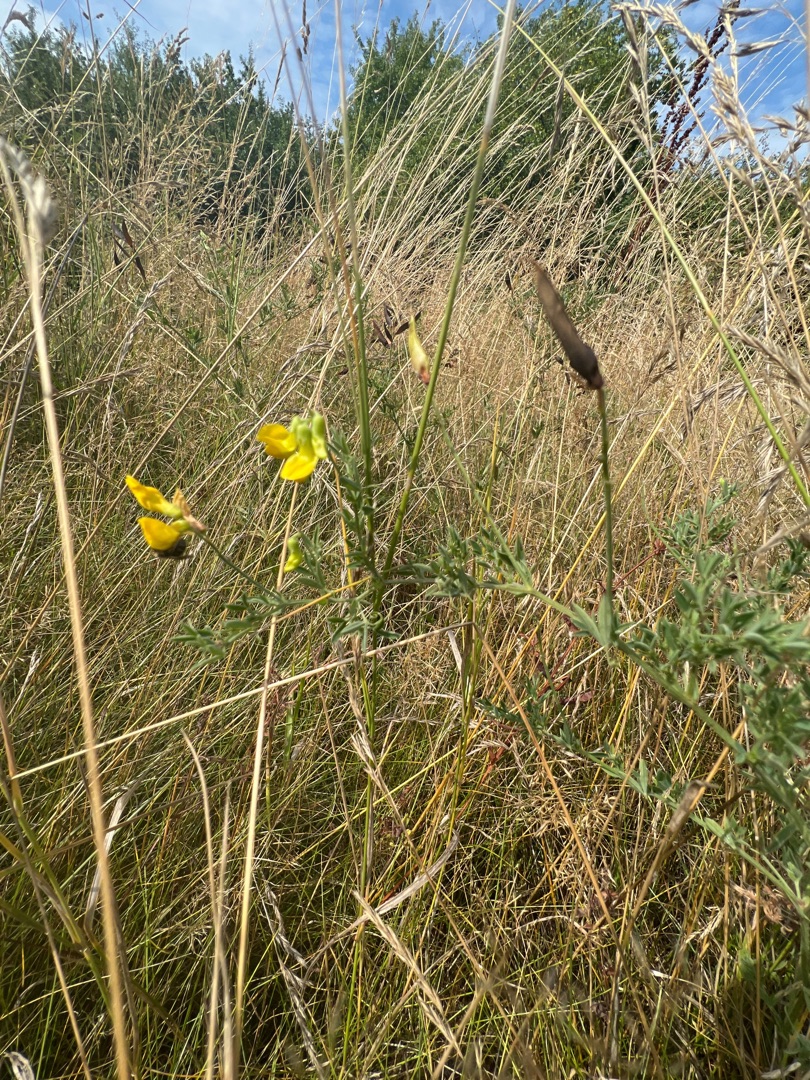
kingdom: Plantae
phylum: Tracheophyta
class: Magnoliopsida
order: Fabales
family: Fabaceae
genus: Lathyrus
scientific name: Lathyrus pratensis
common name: Gul fladbælg
